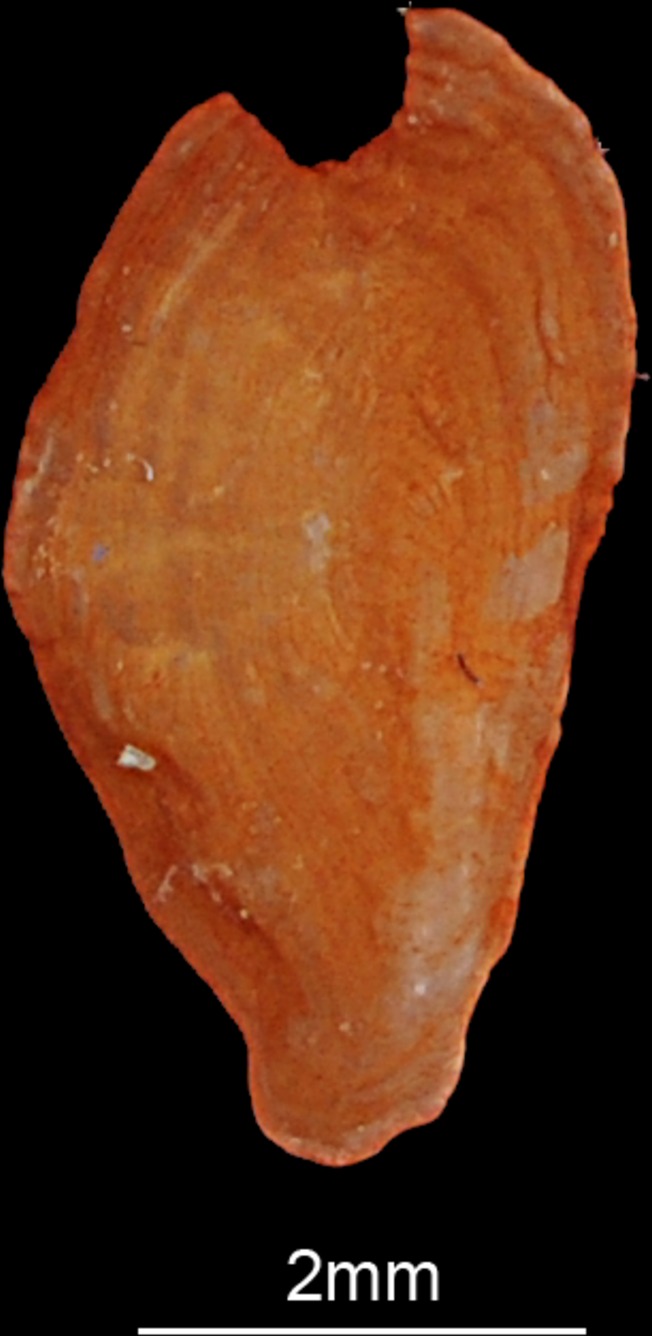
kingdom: Animalia
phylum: Chordata
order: Perciformes
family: Pinguipedidae
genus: Parapercis
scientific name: Parapercis hexophtalma
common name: Speckled sandperch
